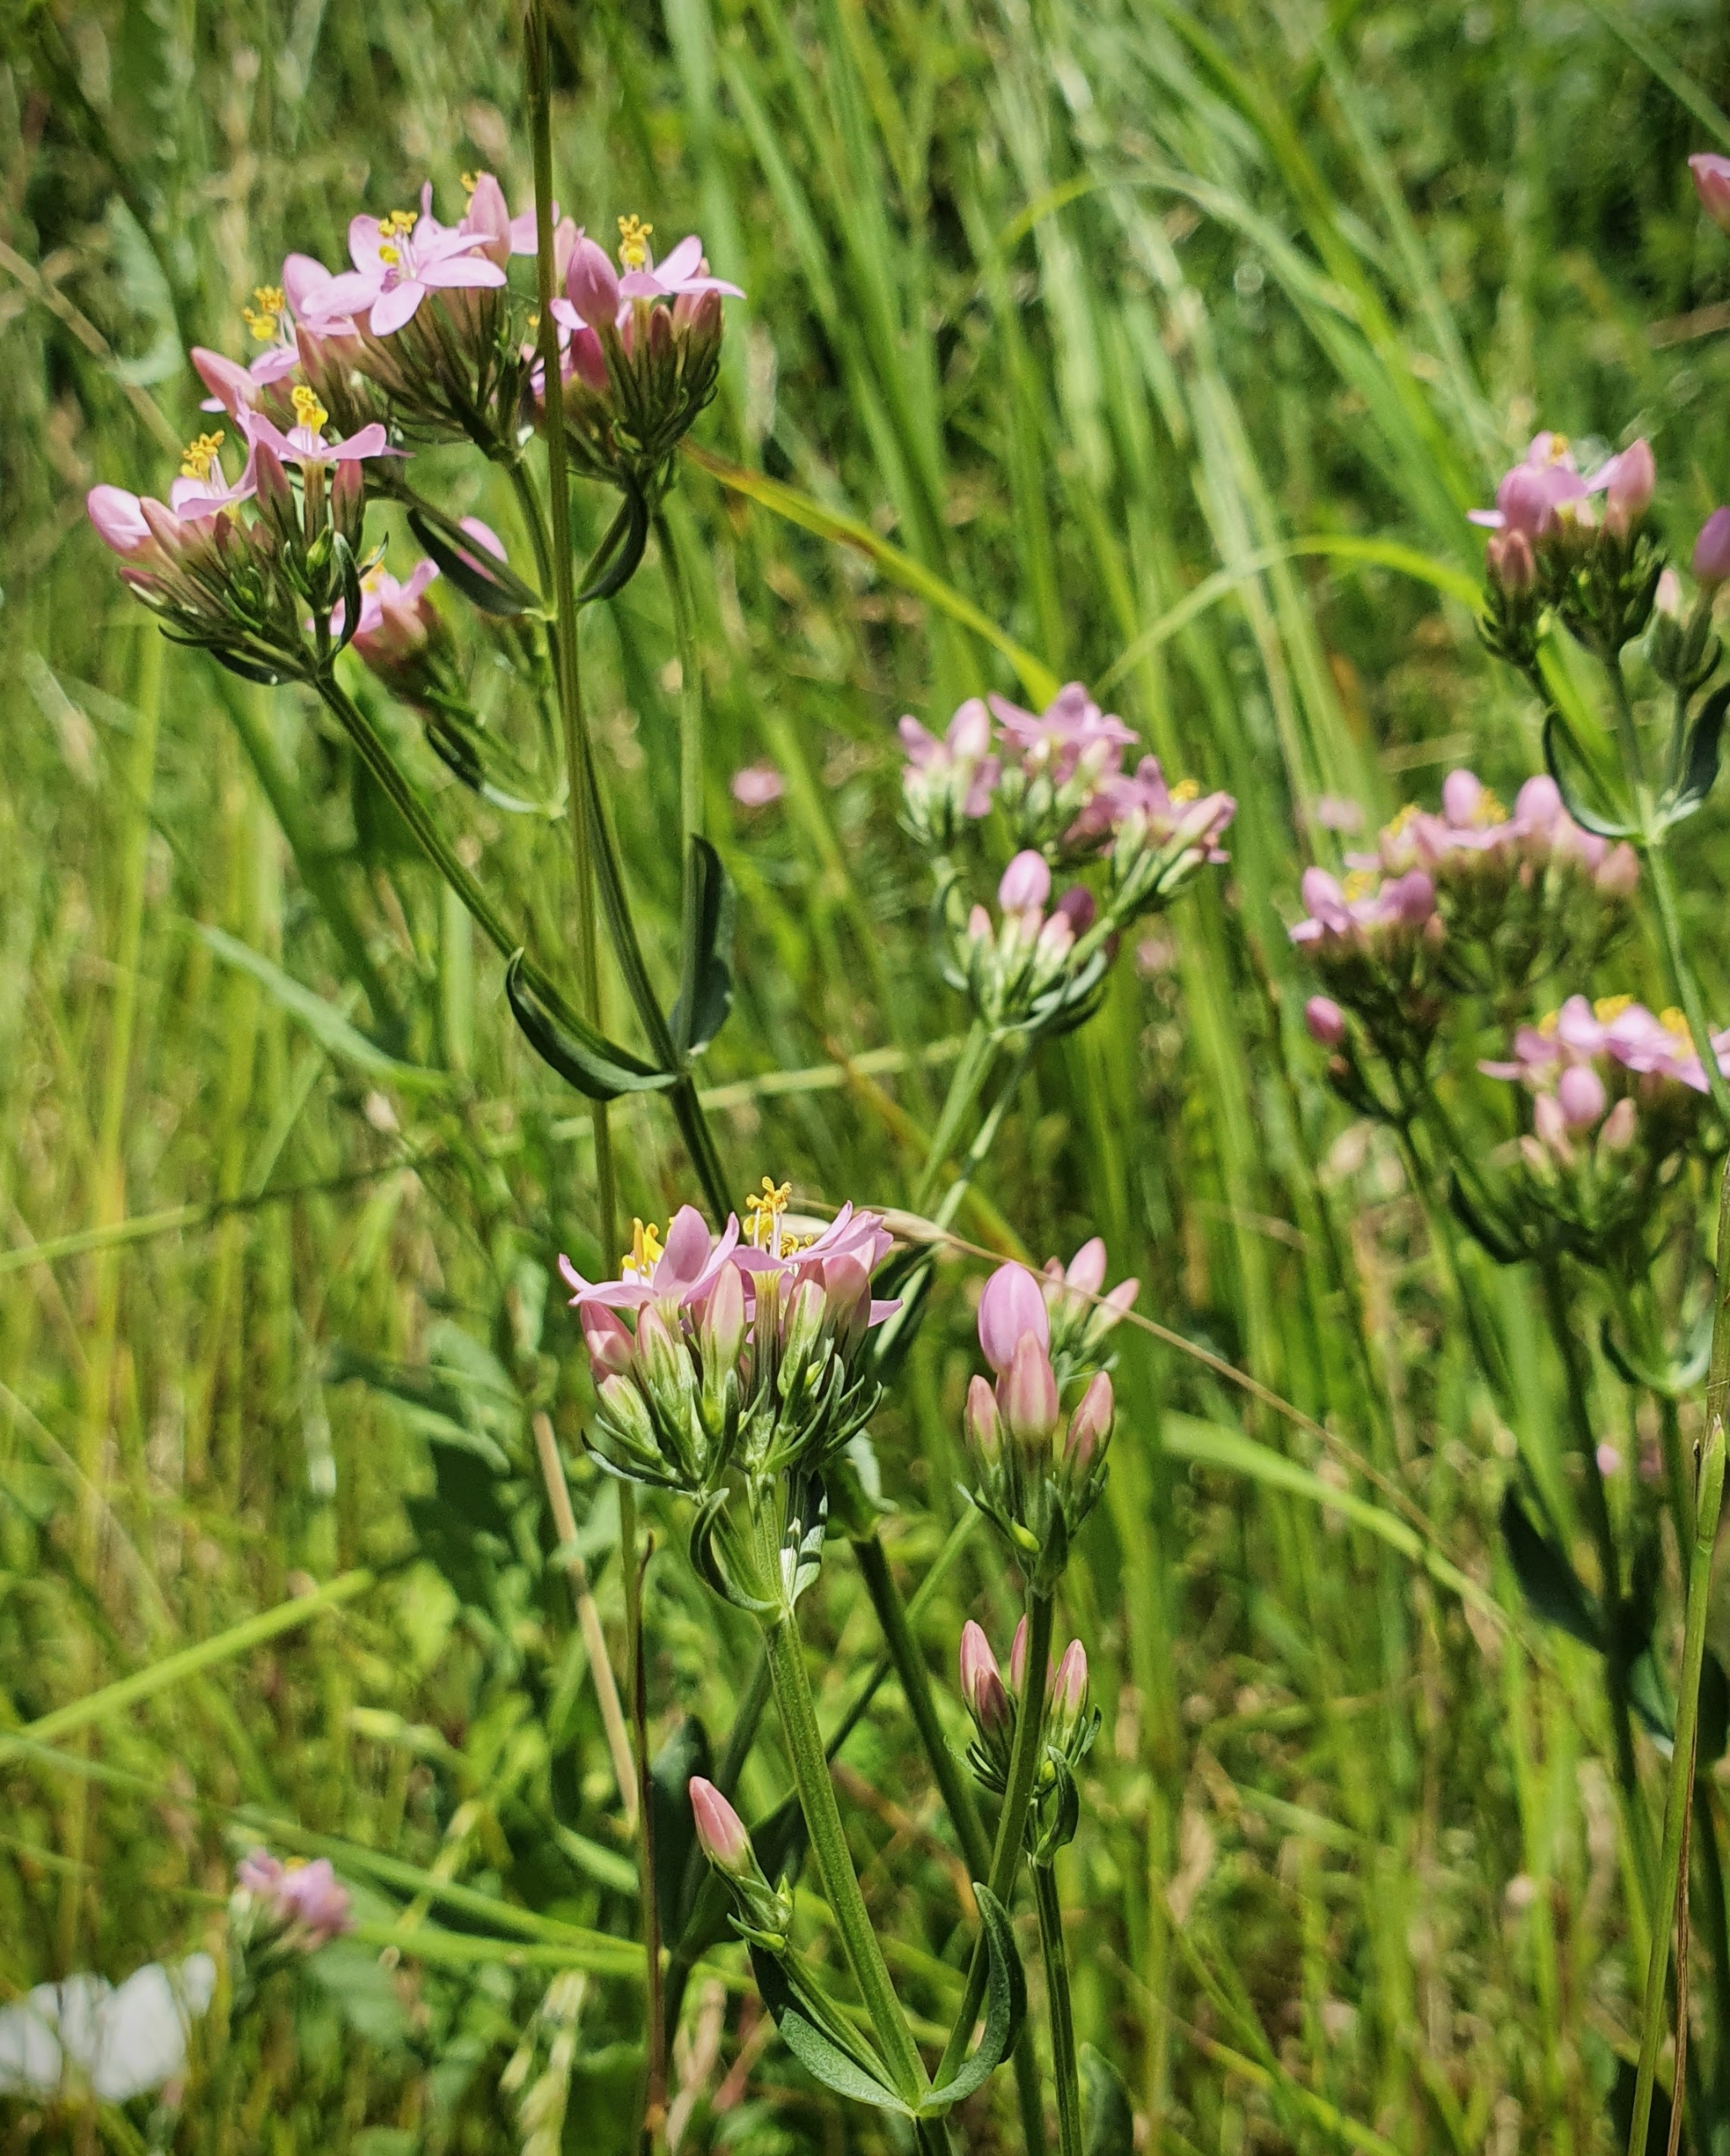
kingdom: Plantae
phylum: Tracheophyta
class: Magnoliopsida
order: Gentianales
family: Gentianaceae
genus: Centaurium
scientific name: Centaurium erythraea
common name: Mark-tusindgylden
